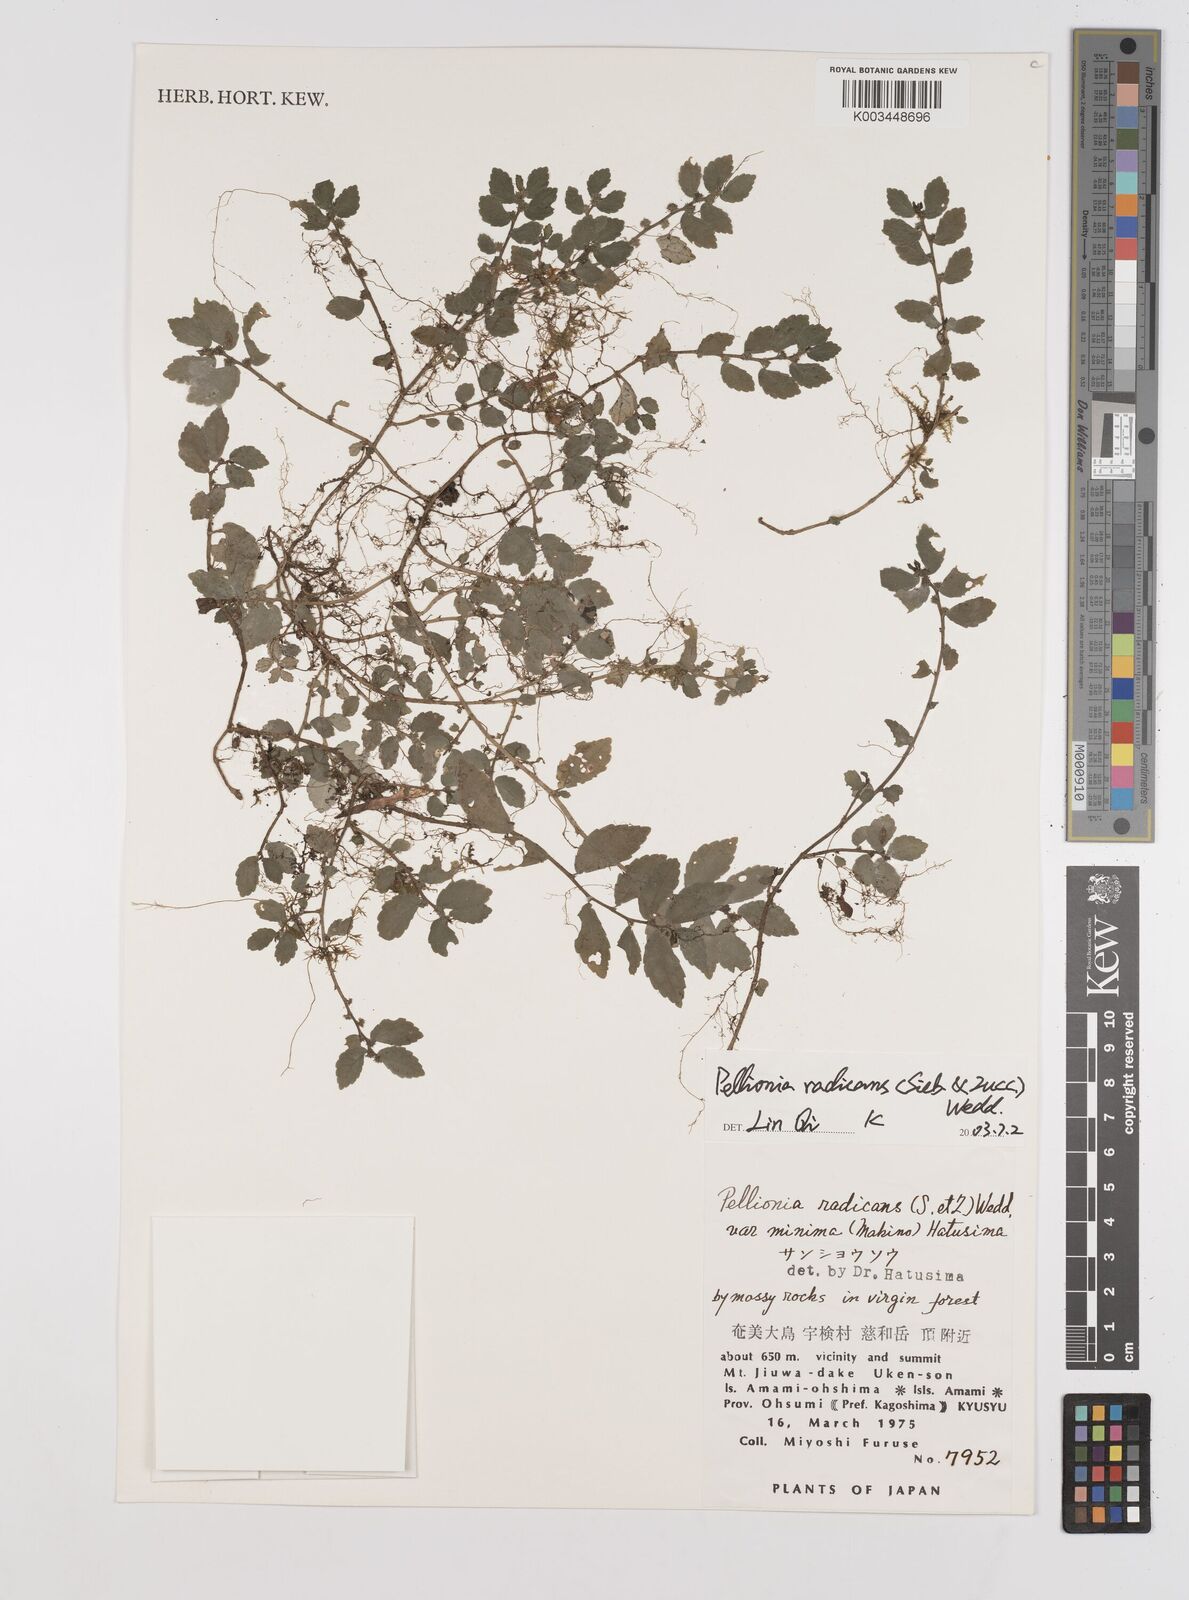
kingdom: Plantae
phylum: Tracheophyta
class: Magnoliopsida
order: Rosales
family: Urticaceae
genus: Elatostema
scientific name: Elatostema radicans
